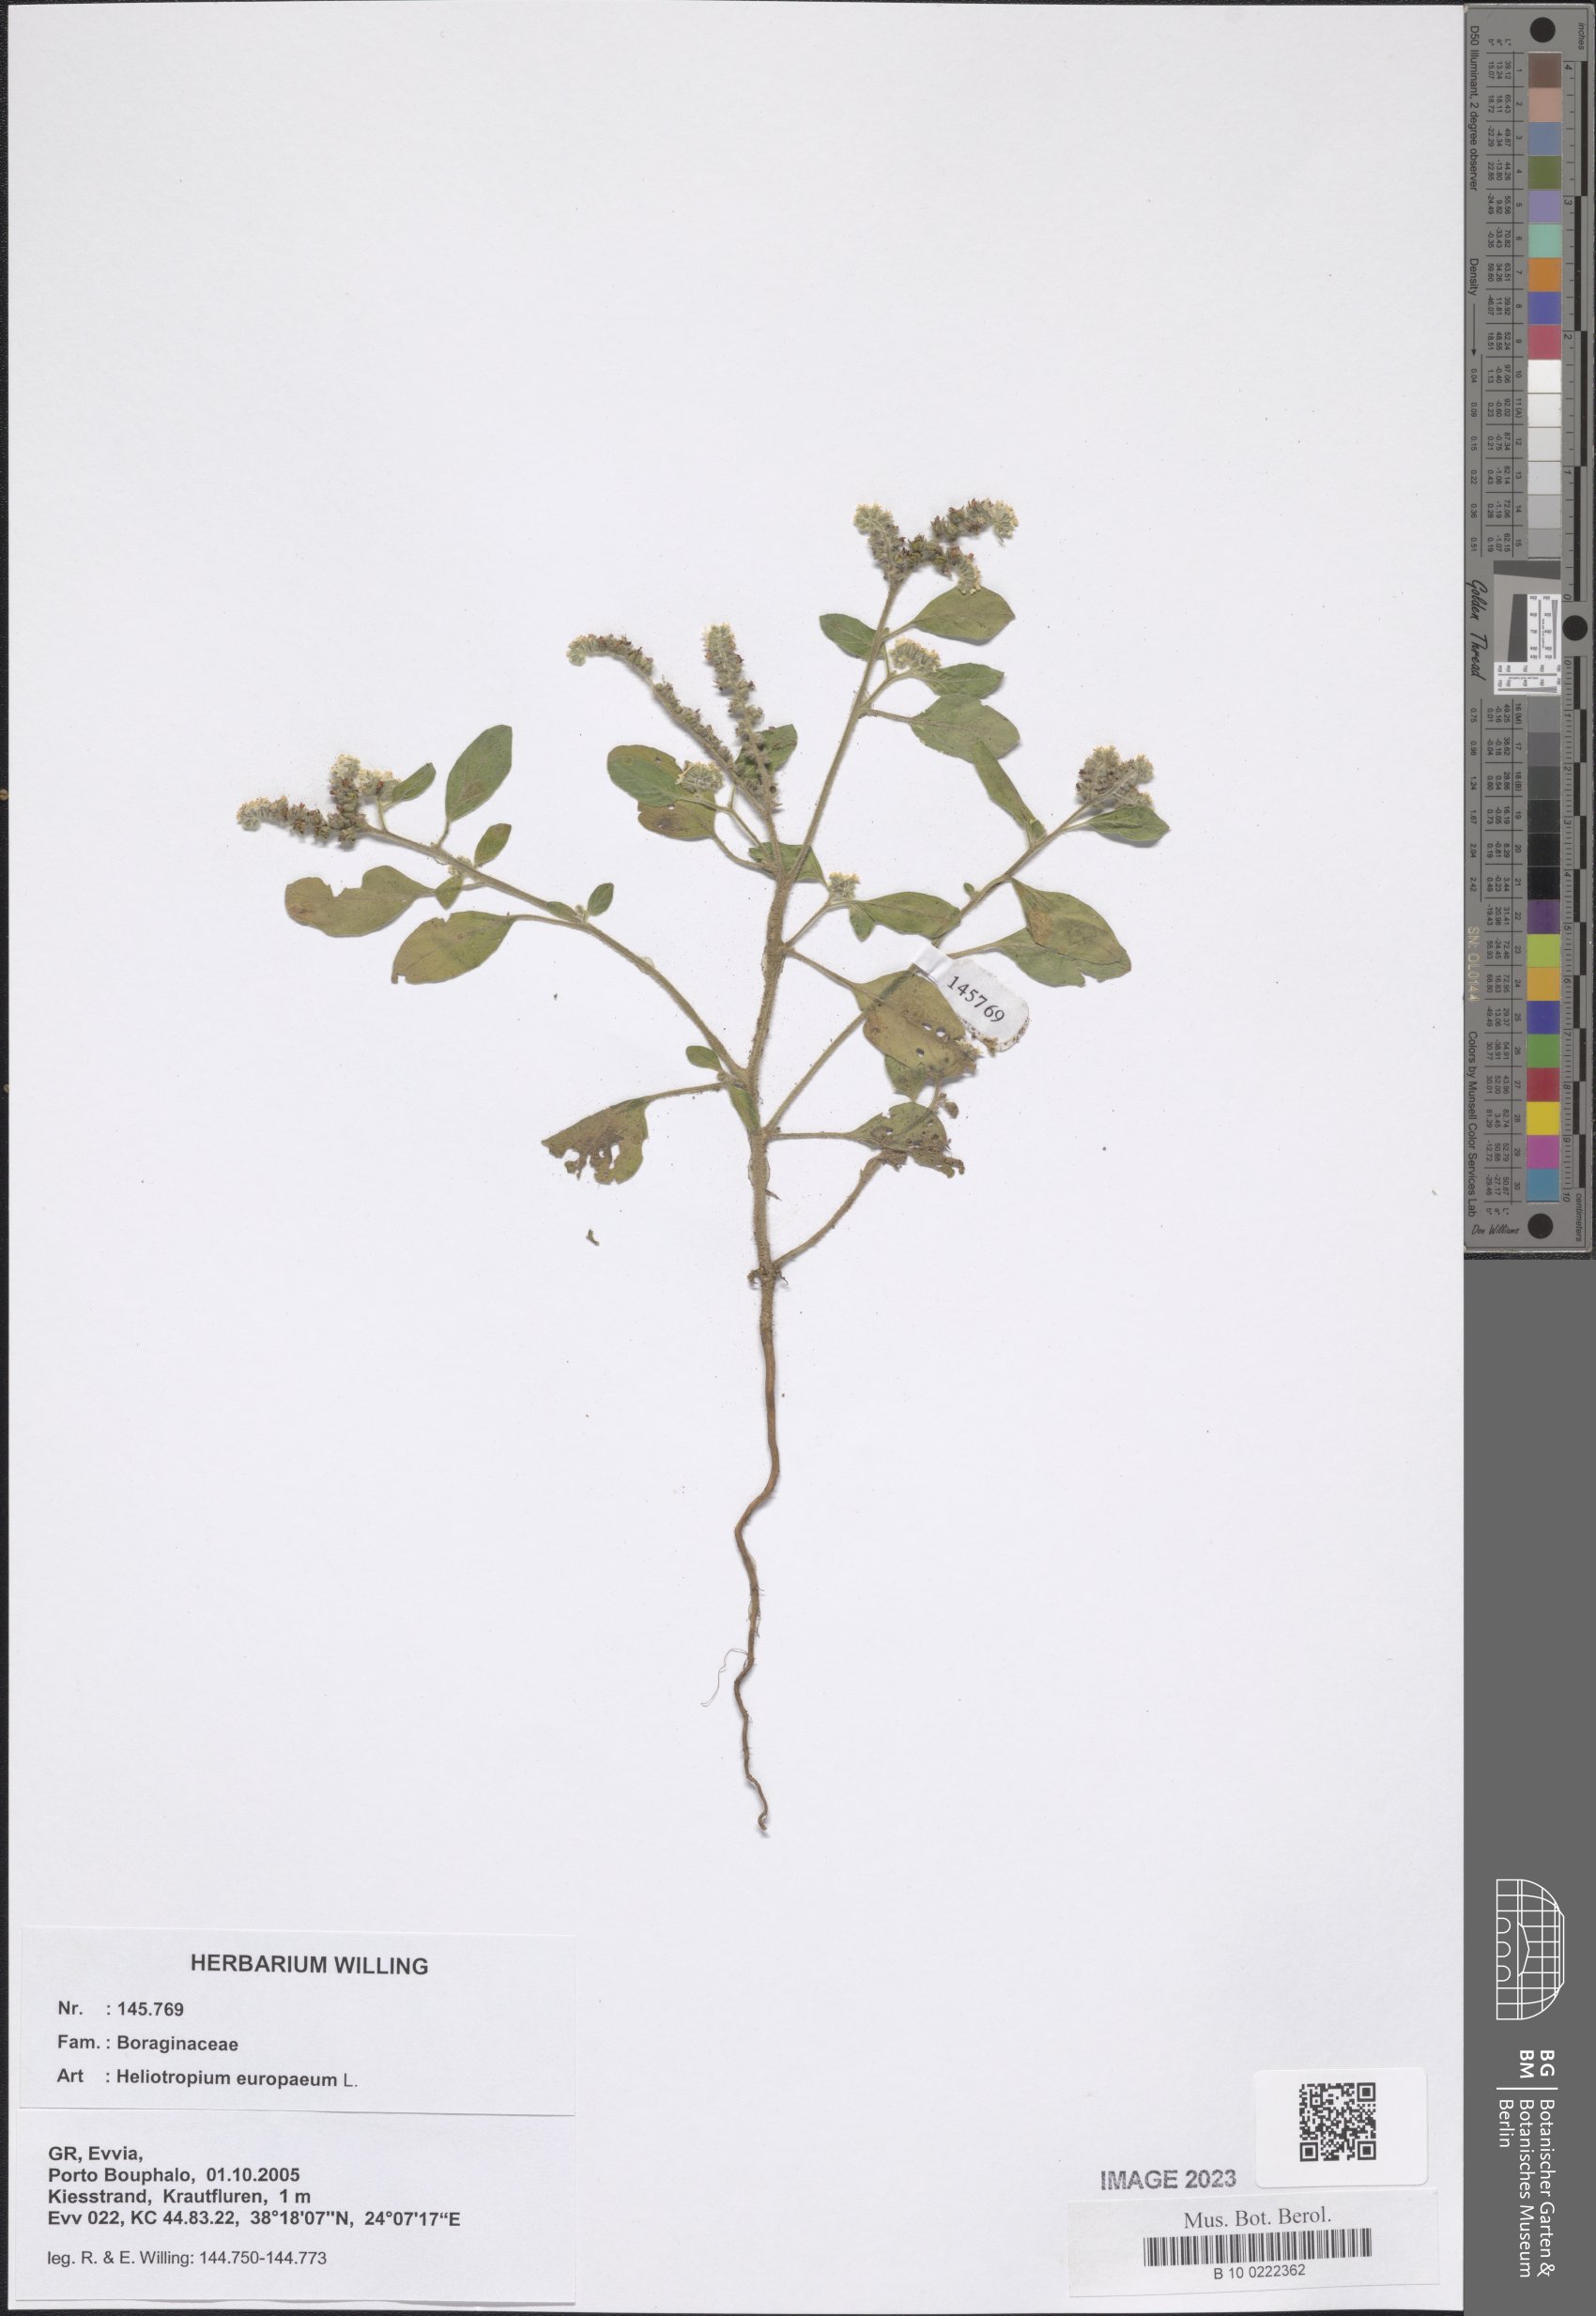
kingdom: Plantae
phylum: Tracheophyta
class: Magnoliopsida
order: Boraginales
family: Heliotropiaceae
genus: Heliotropium
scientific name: Heliotropium europaeum
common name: European heliotrope
